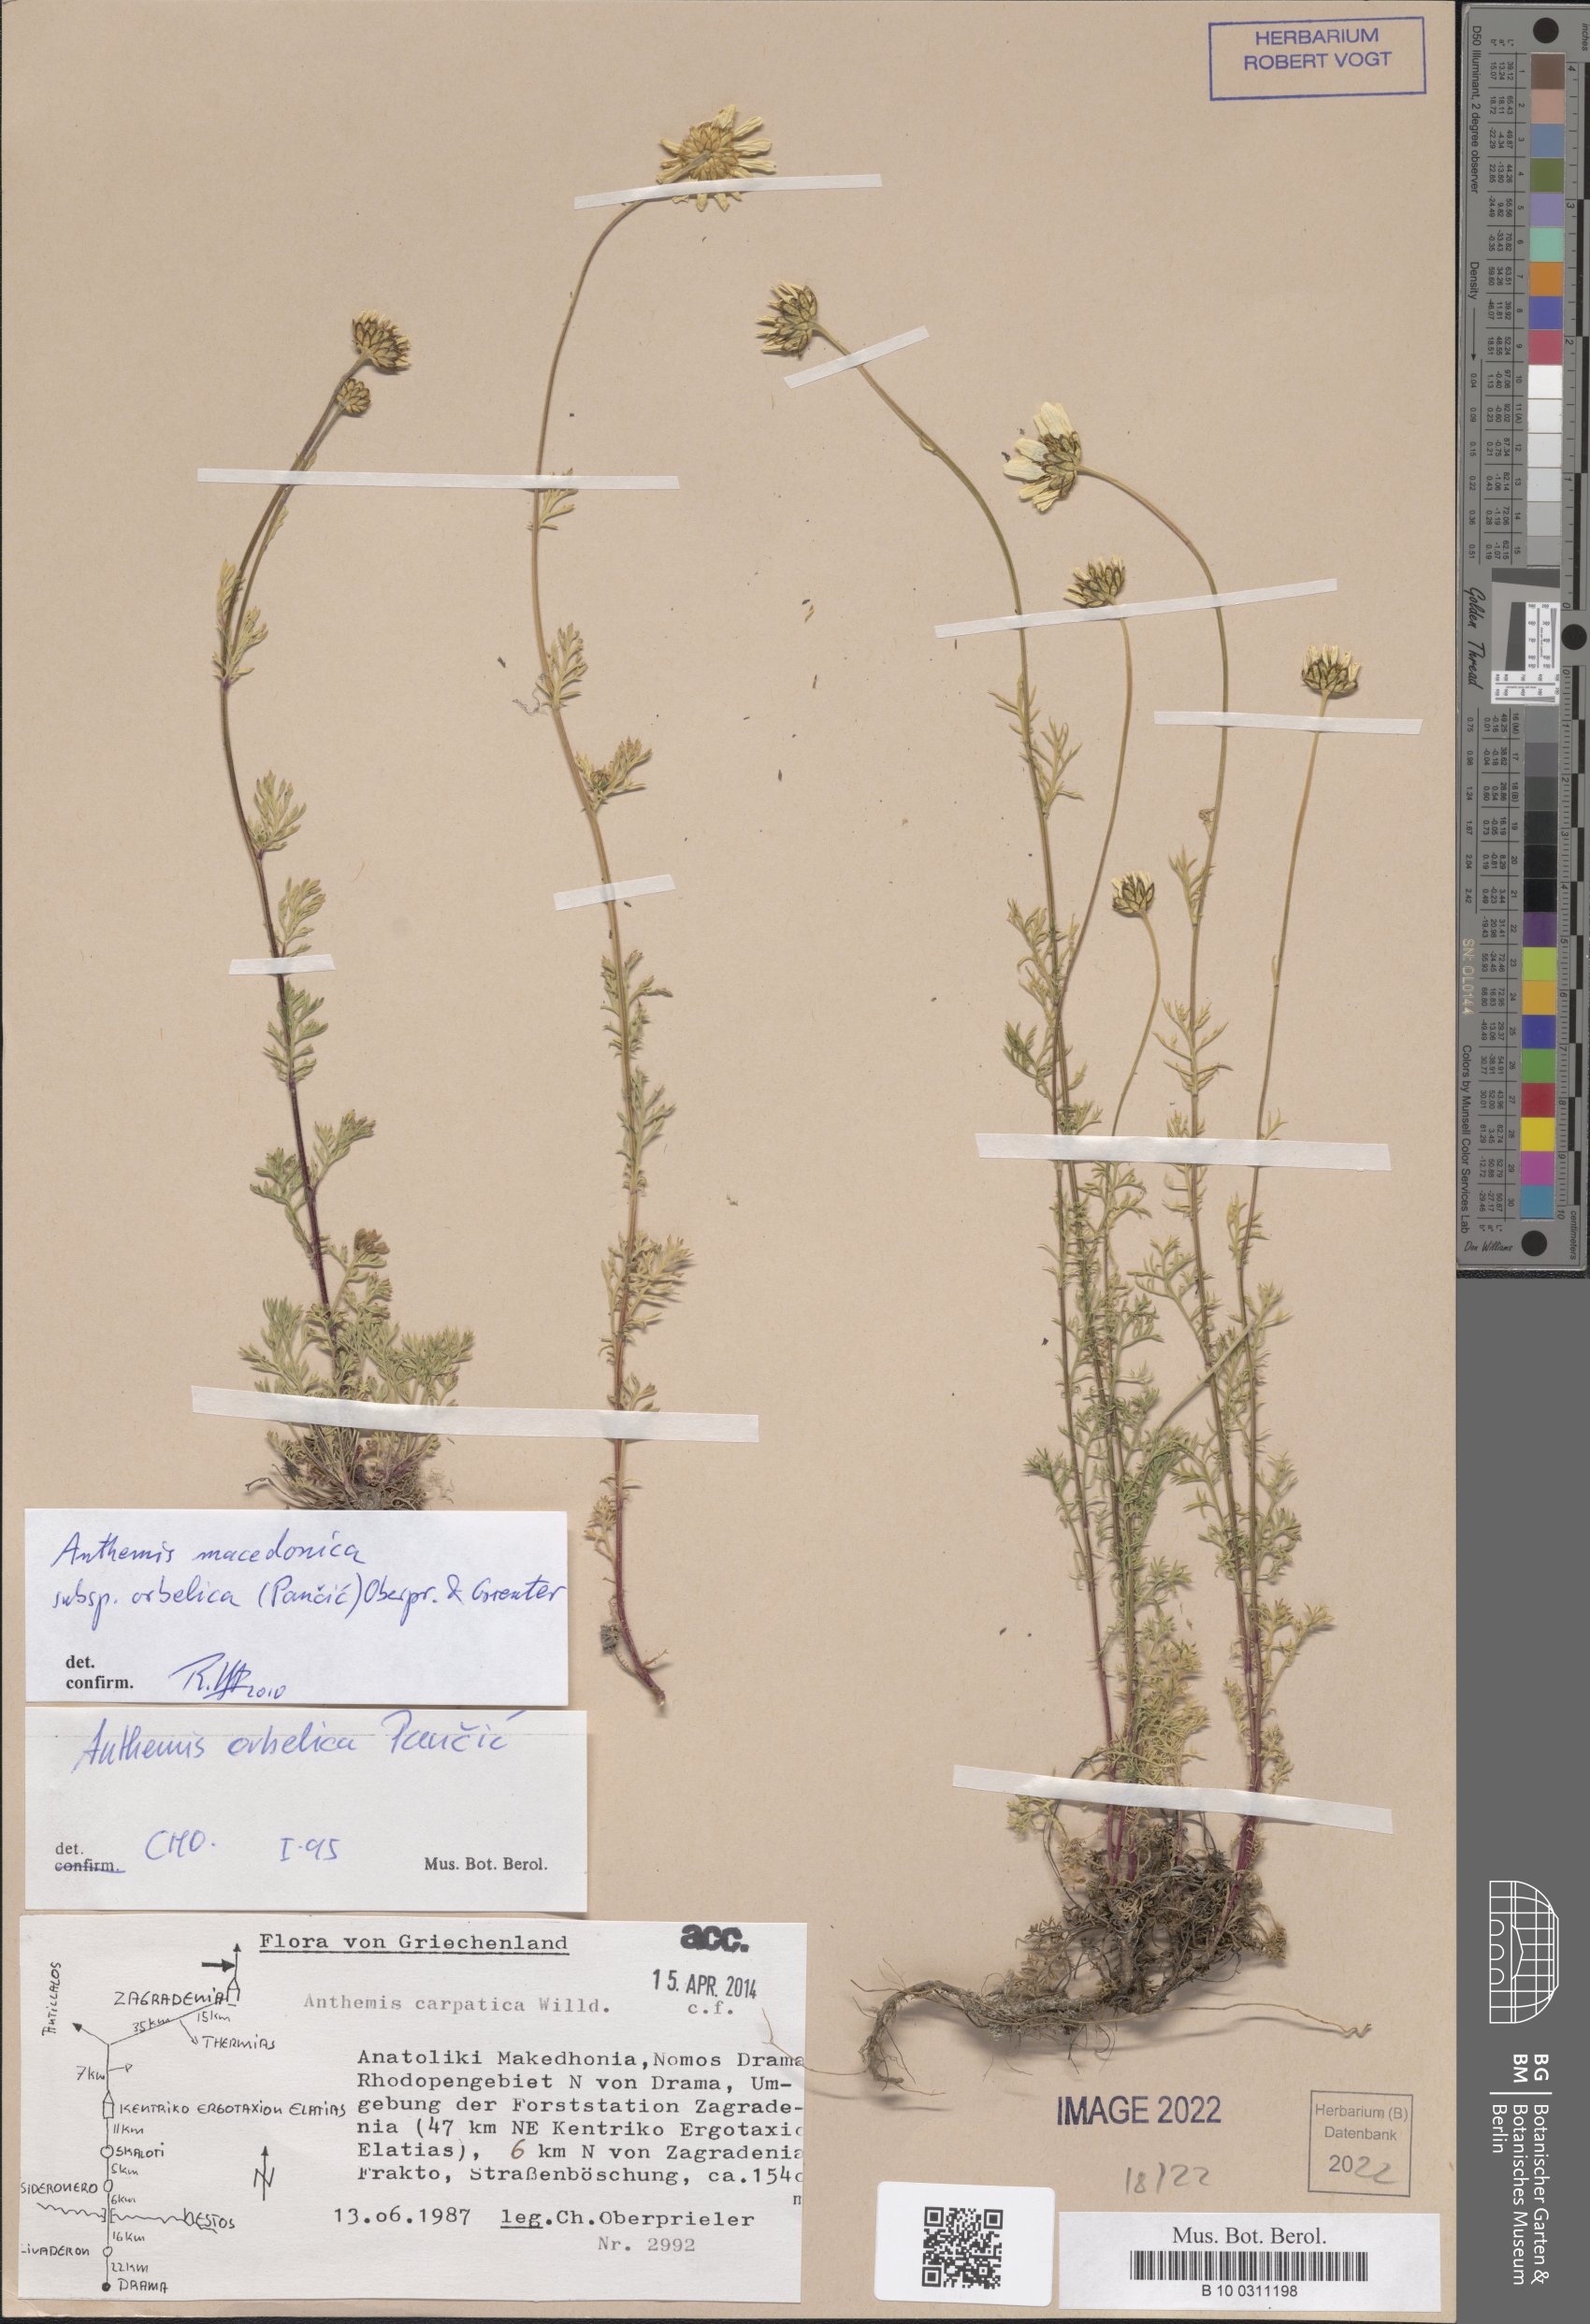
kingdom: Plantae
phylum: Tracheophyta
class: Magnoliopsida
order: Asterales
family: Asteraceae
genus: Anthemis
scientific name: Anthemis orbelica
